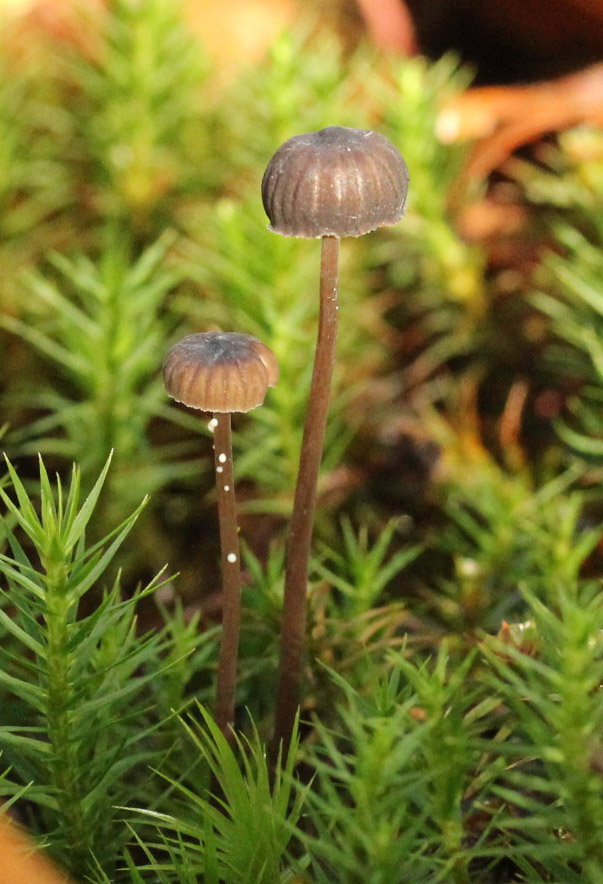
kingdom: Fungi
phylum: Basidiomycota
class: Agaricomycetes
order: Agaricales
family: Mycenaceae
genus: Mycena
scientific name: Mycena galopus
